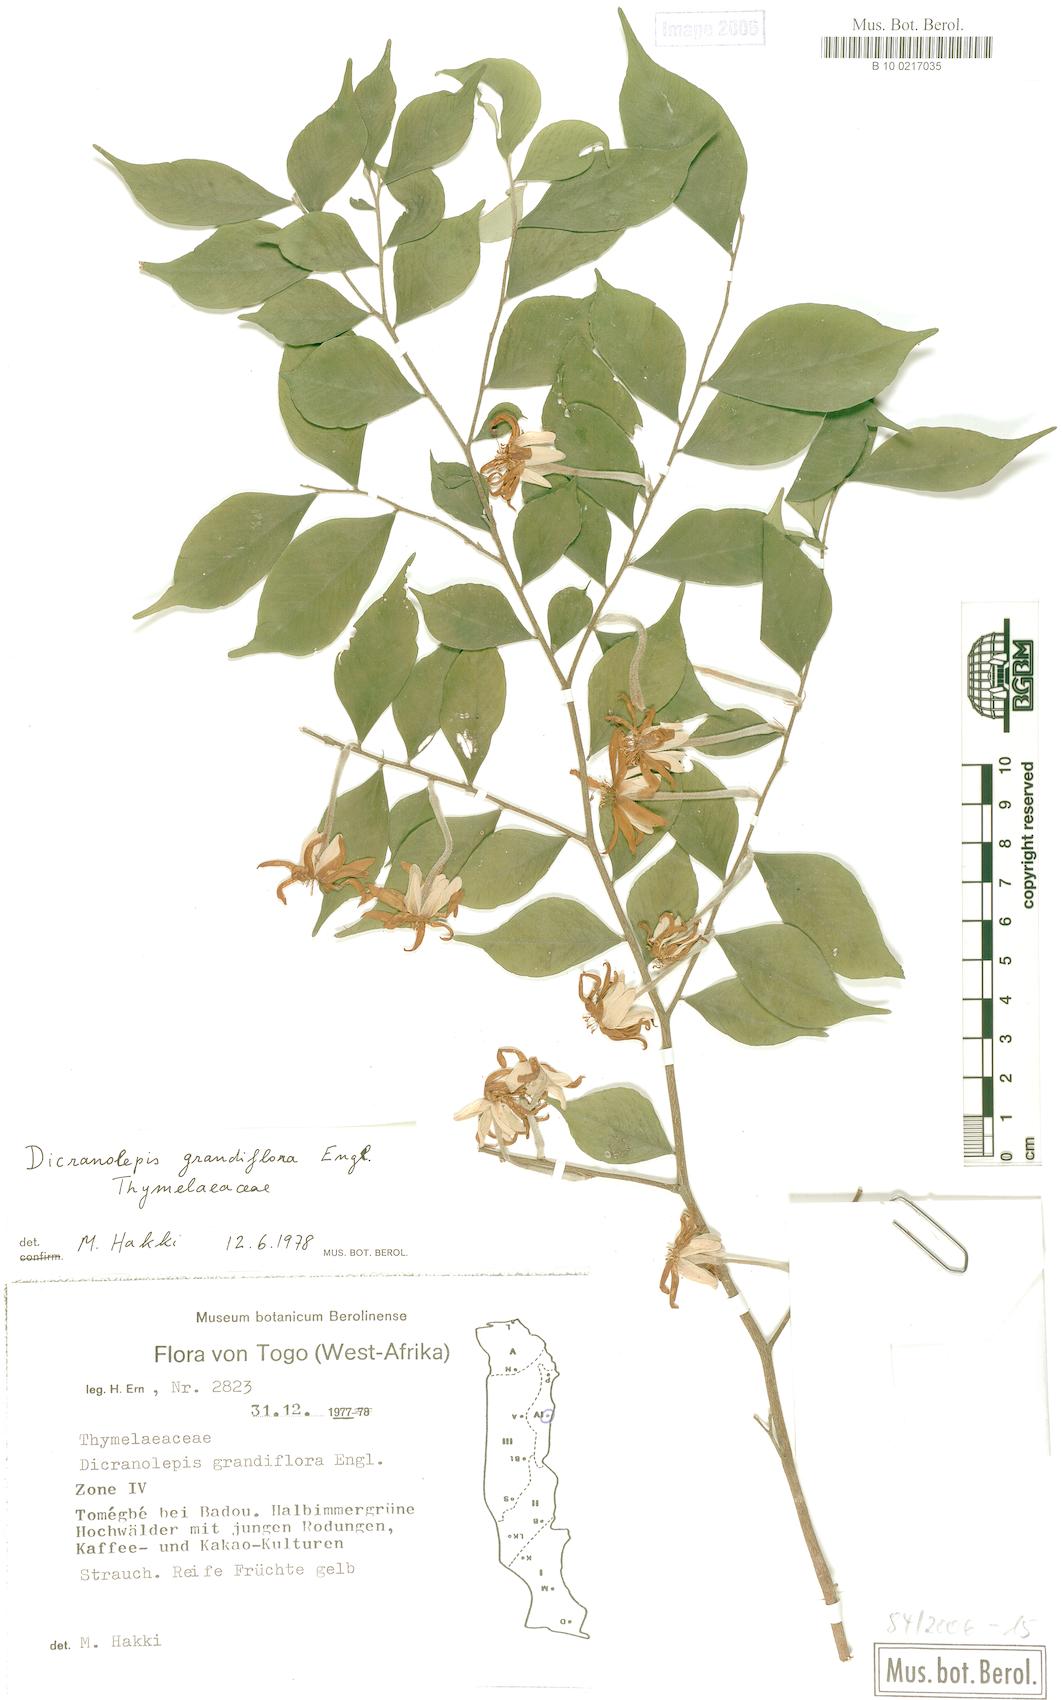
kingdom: Plantae
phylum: Tracheophyta
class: Magnoliopsida
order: Malvales
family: Thymelaeaceae
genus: Dicranolepis
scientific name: Dicranolepis grandiflora
